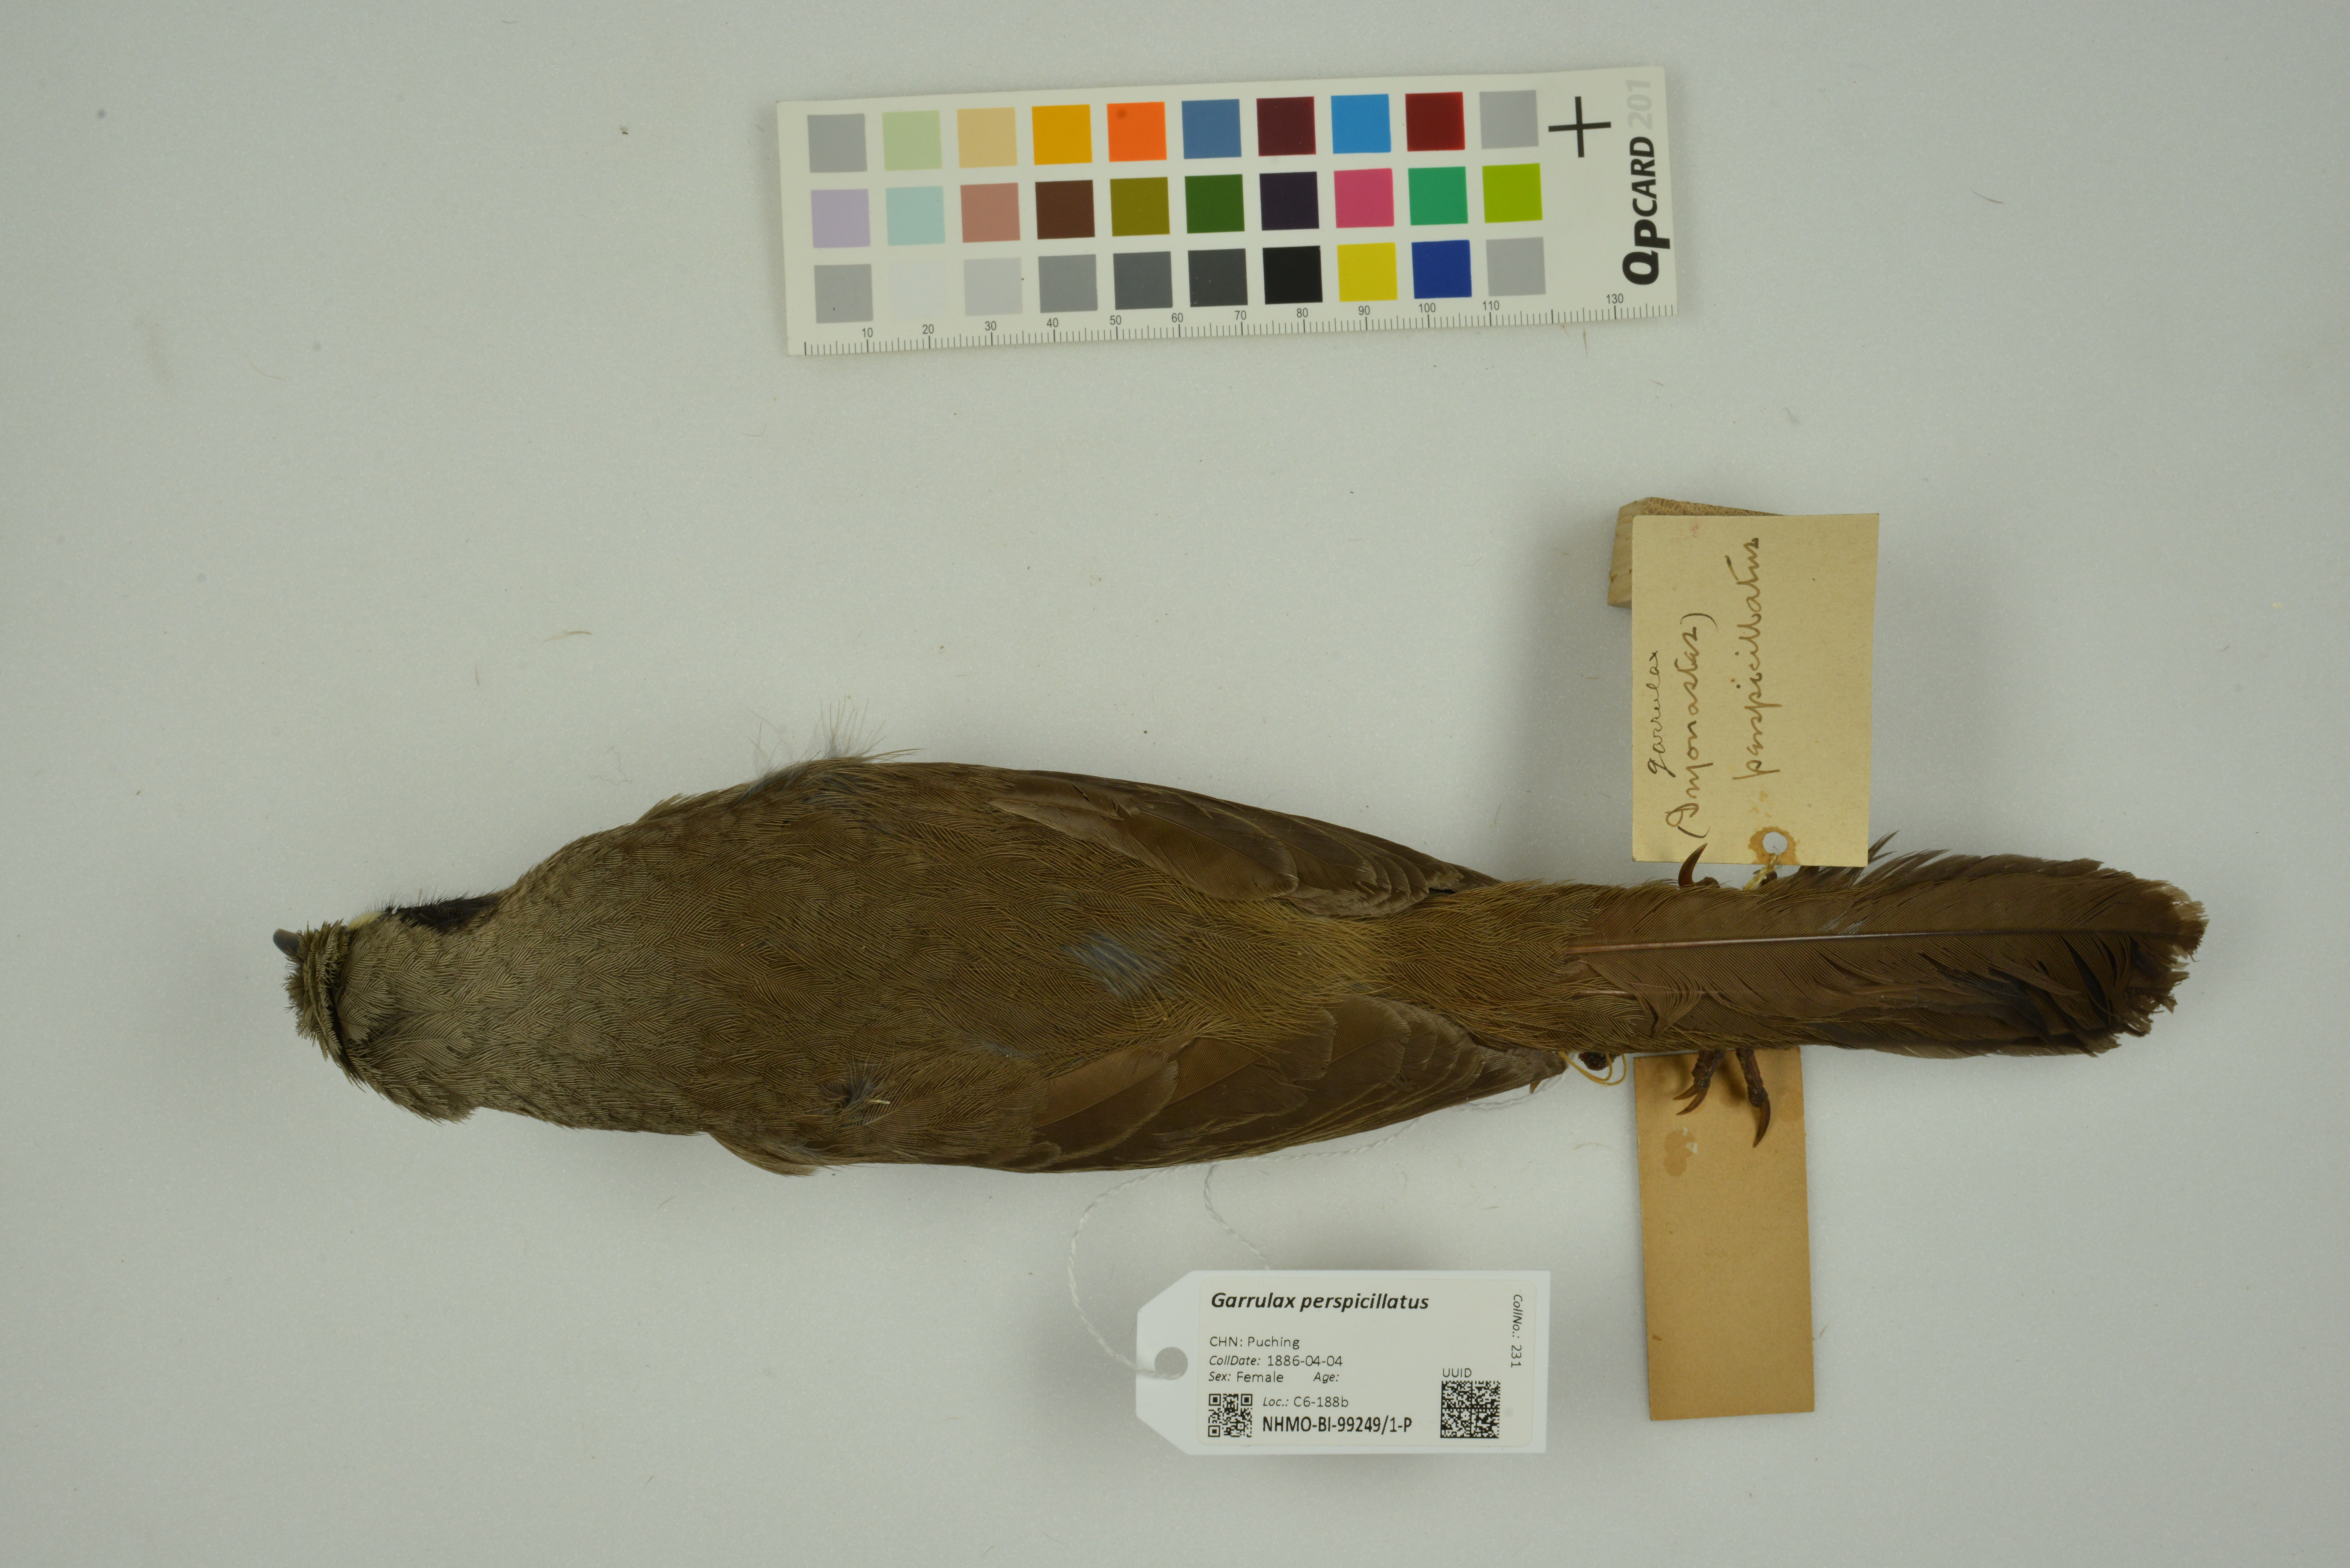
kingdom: Animalia
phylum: Chordata
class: Aves
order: Passeriformes
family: Leiothrichidae
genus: Garrulax
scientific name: Garrulax perspicillatus
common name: Masked laughingthrush
